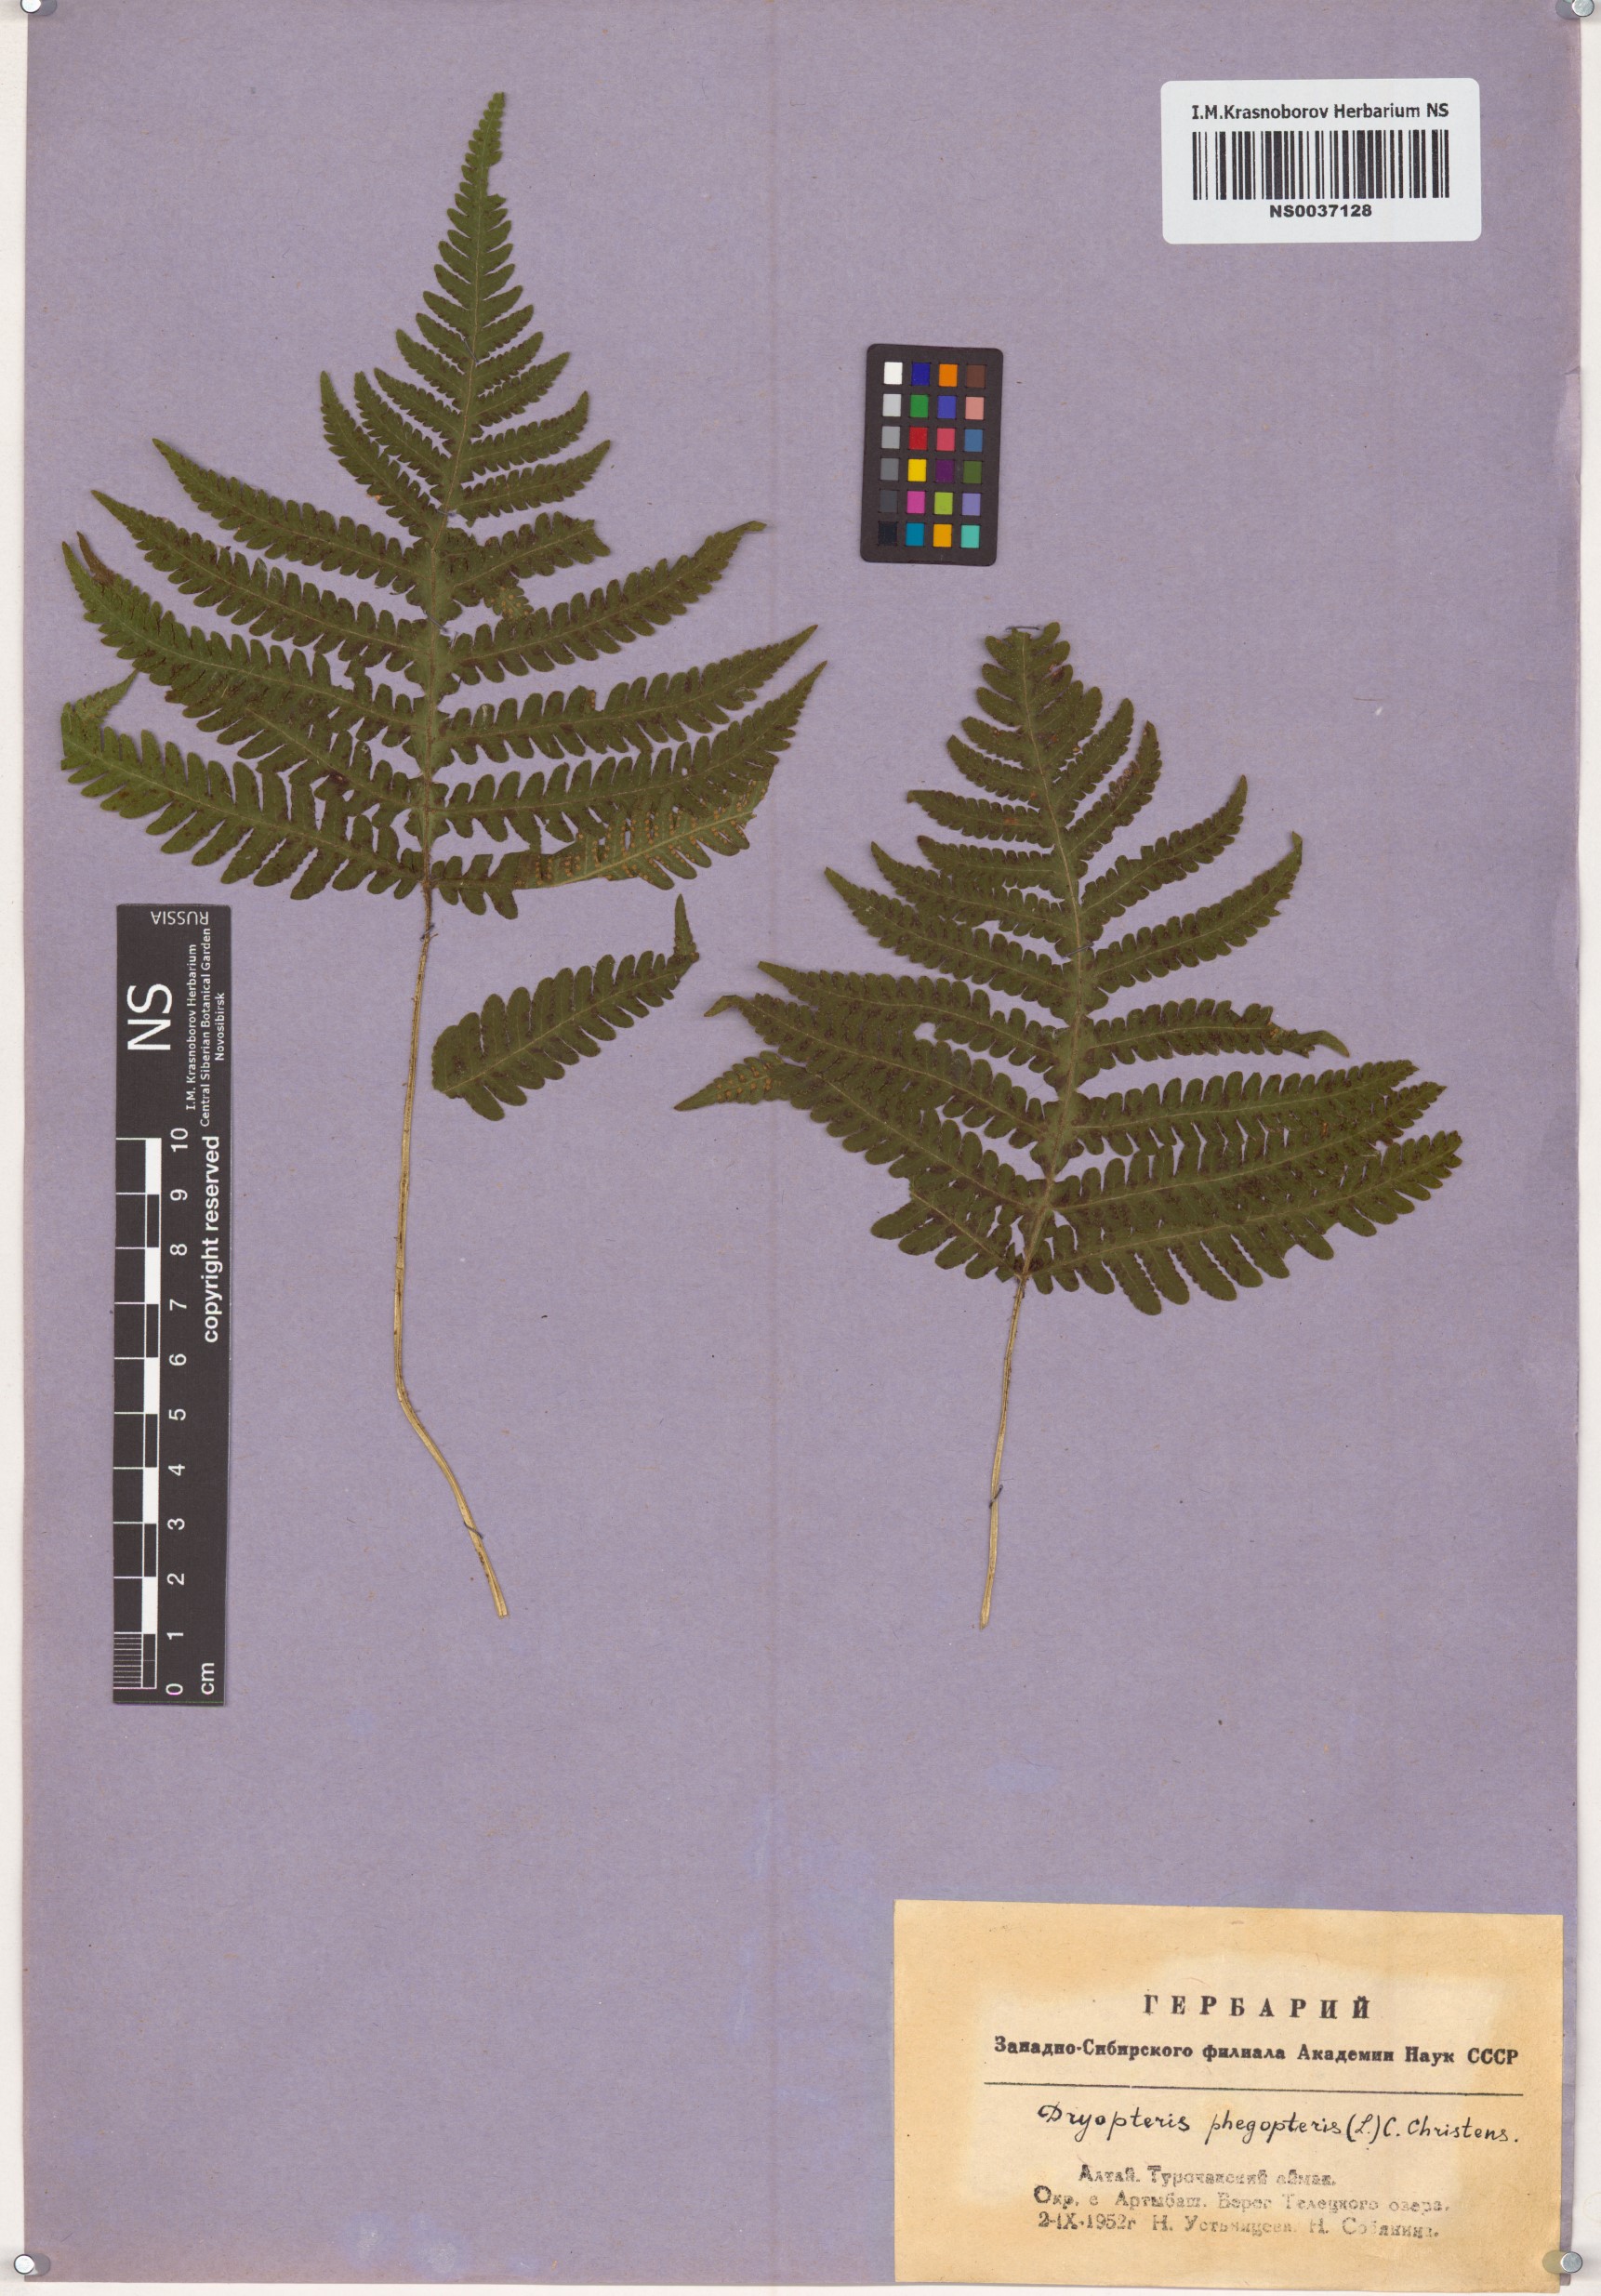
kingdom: Plantae
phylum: Tracheophyta
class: Polypodiopsida
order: Polypodiales
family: Thelypteridaceae
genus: Phegopteris
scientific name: Phegopteris connectilis
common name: Beech fern
